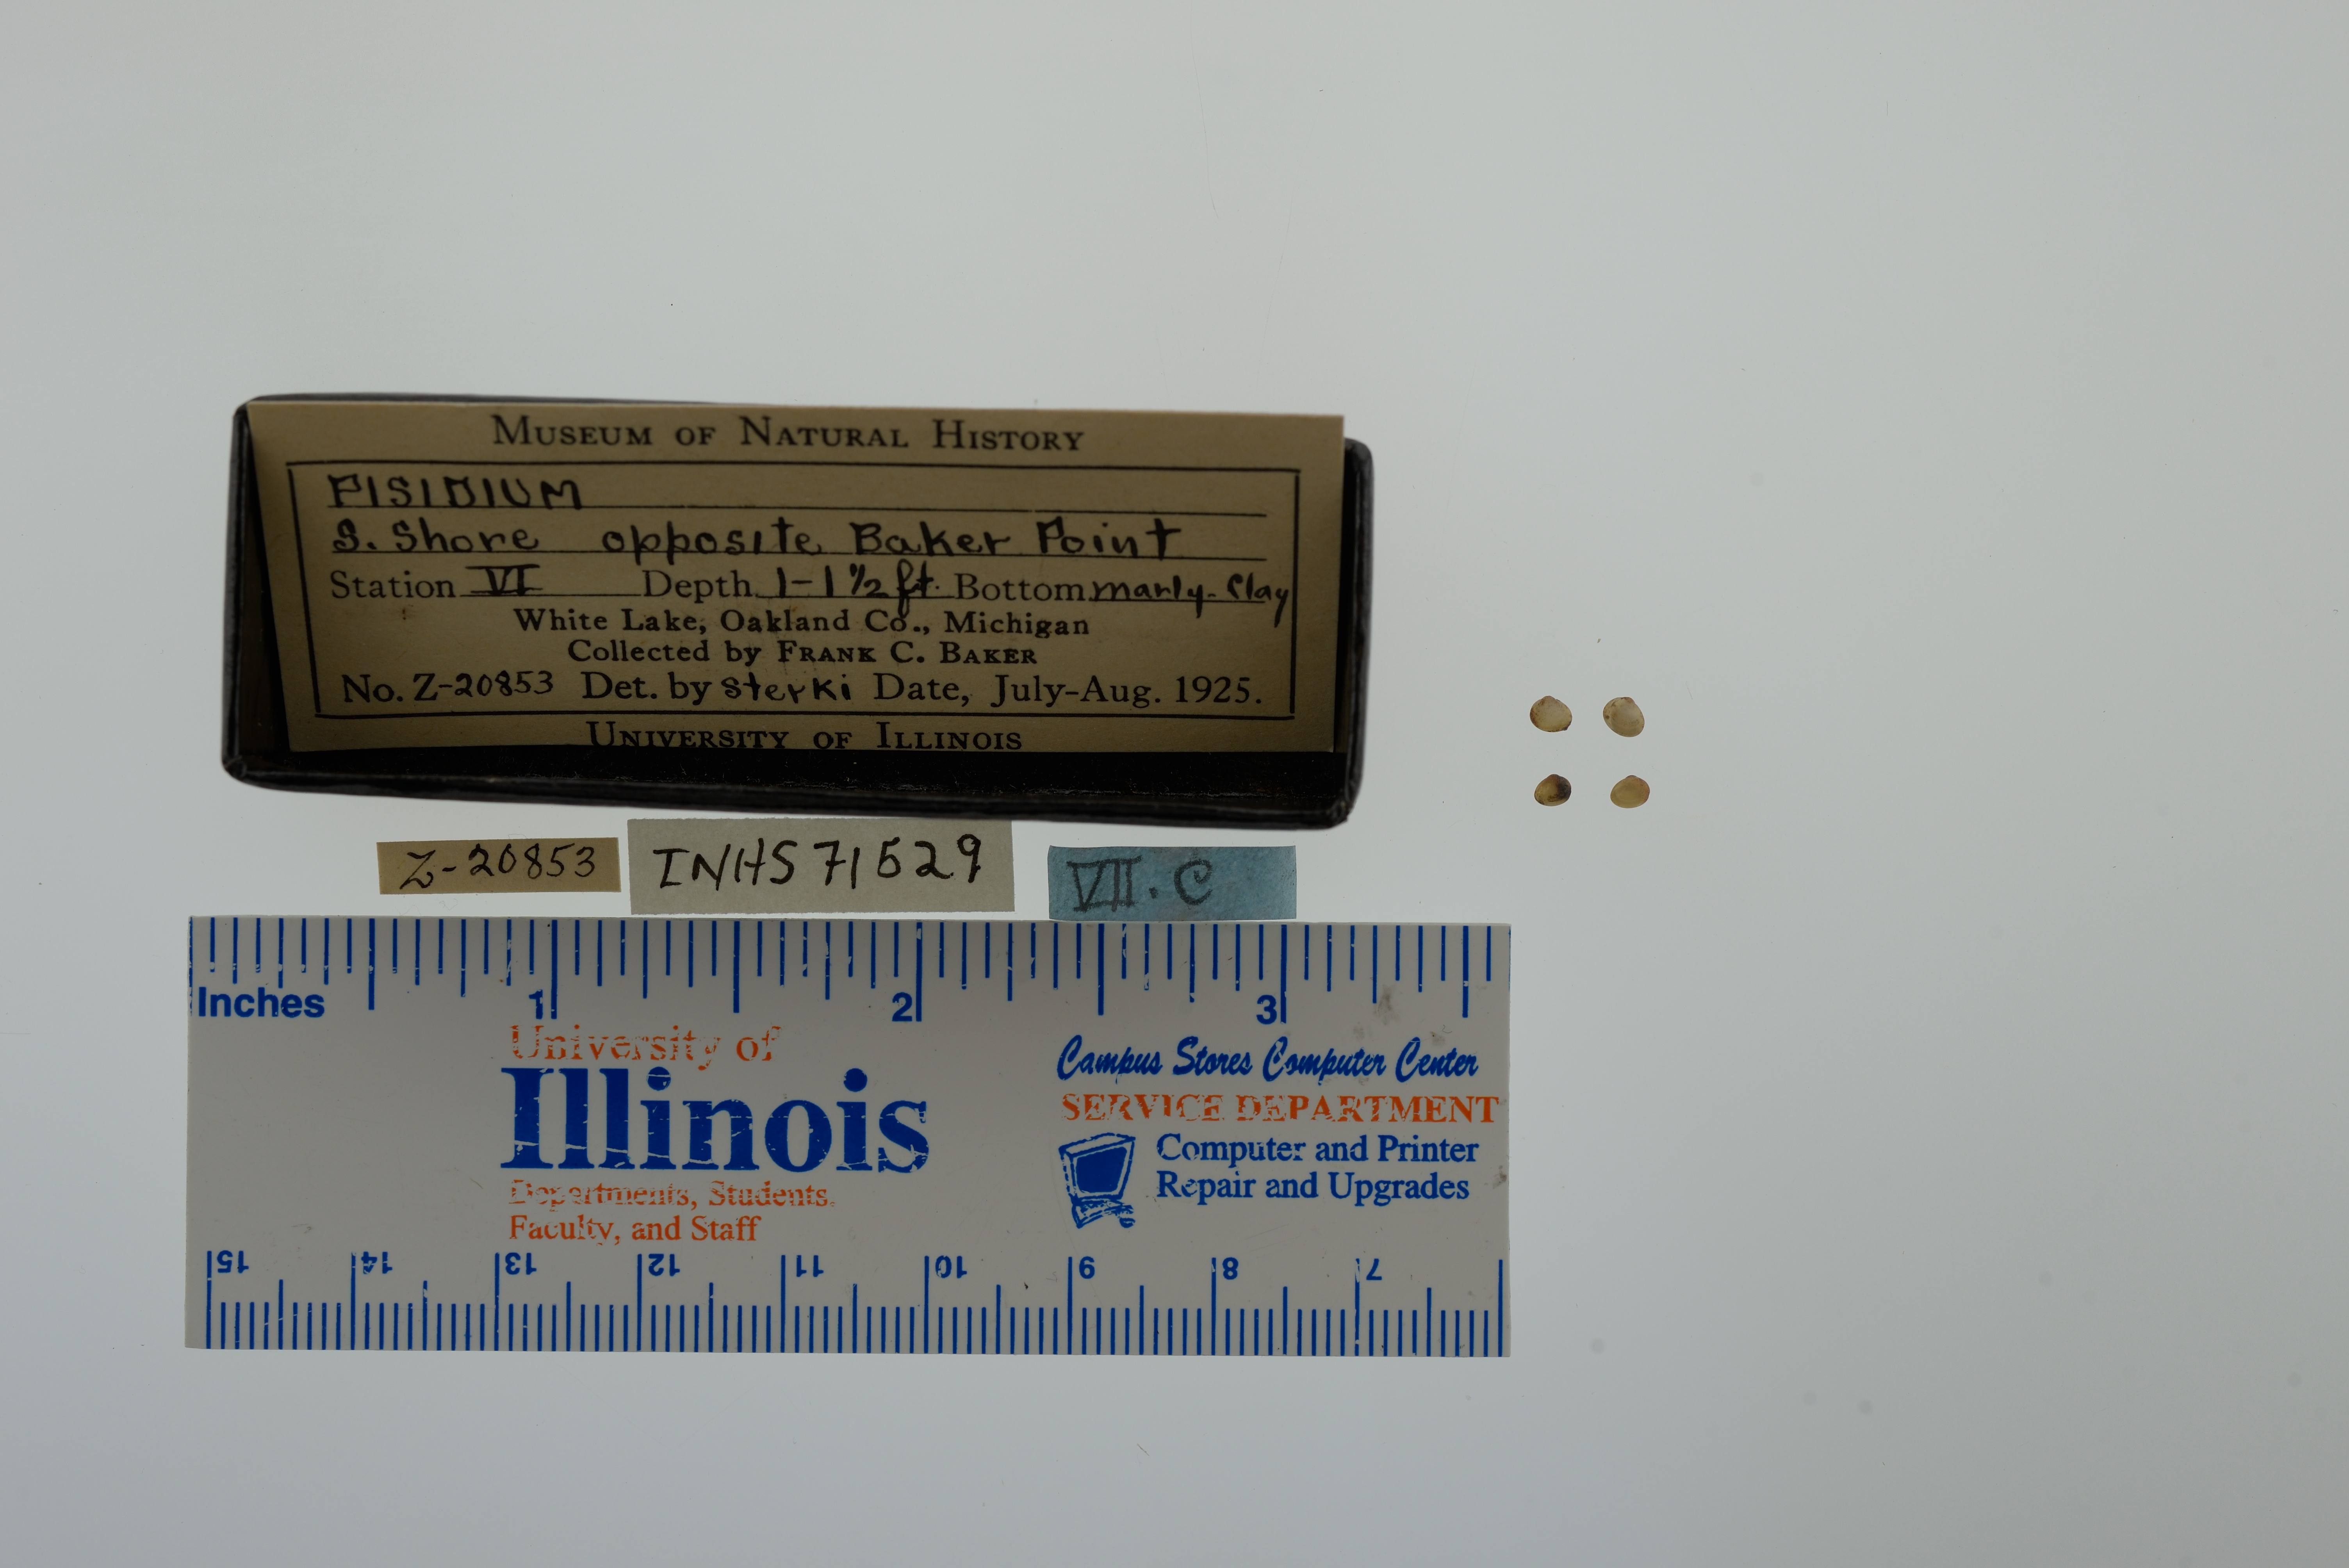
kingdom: Animalia
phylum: Mollusca
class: Bivalvia
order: Sphaeriida
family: Sphaeriidae
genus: Pisidium
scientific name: Pisidium
